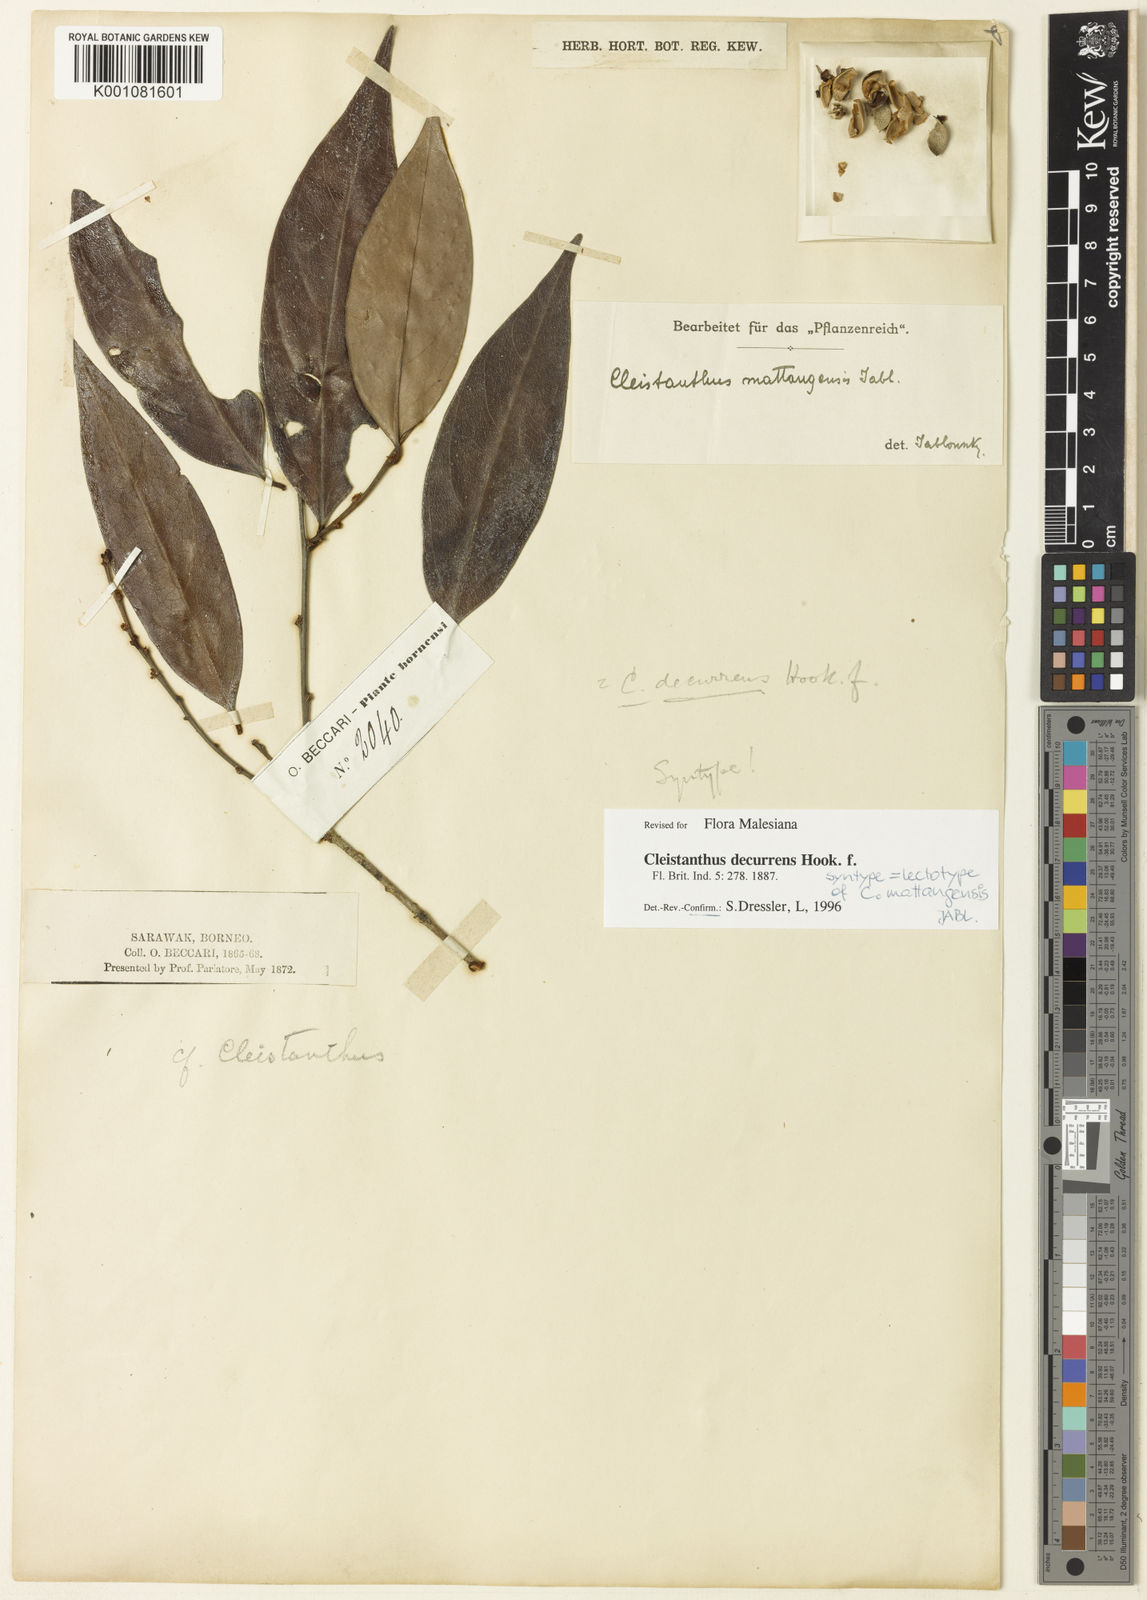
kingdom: Plantae
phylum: Tracheophyta
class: Magnoliopsida
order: Malpighiales
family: Phyllanthaceae
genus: Cleistanthus
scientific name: Cleistanthus decurrens
